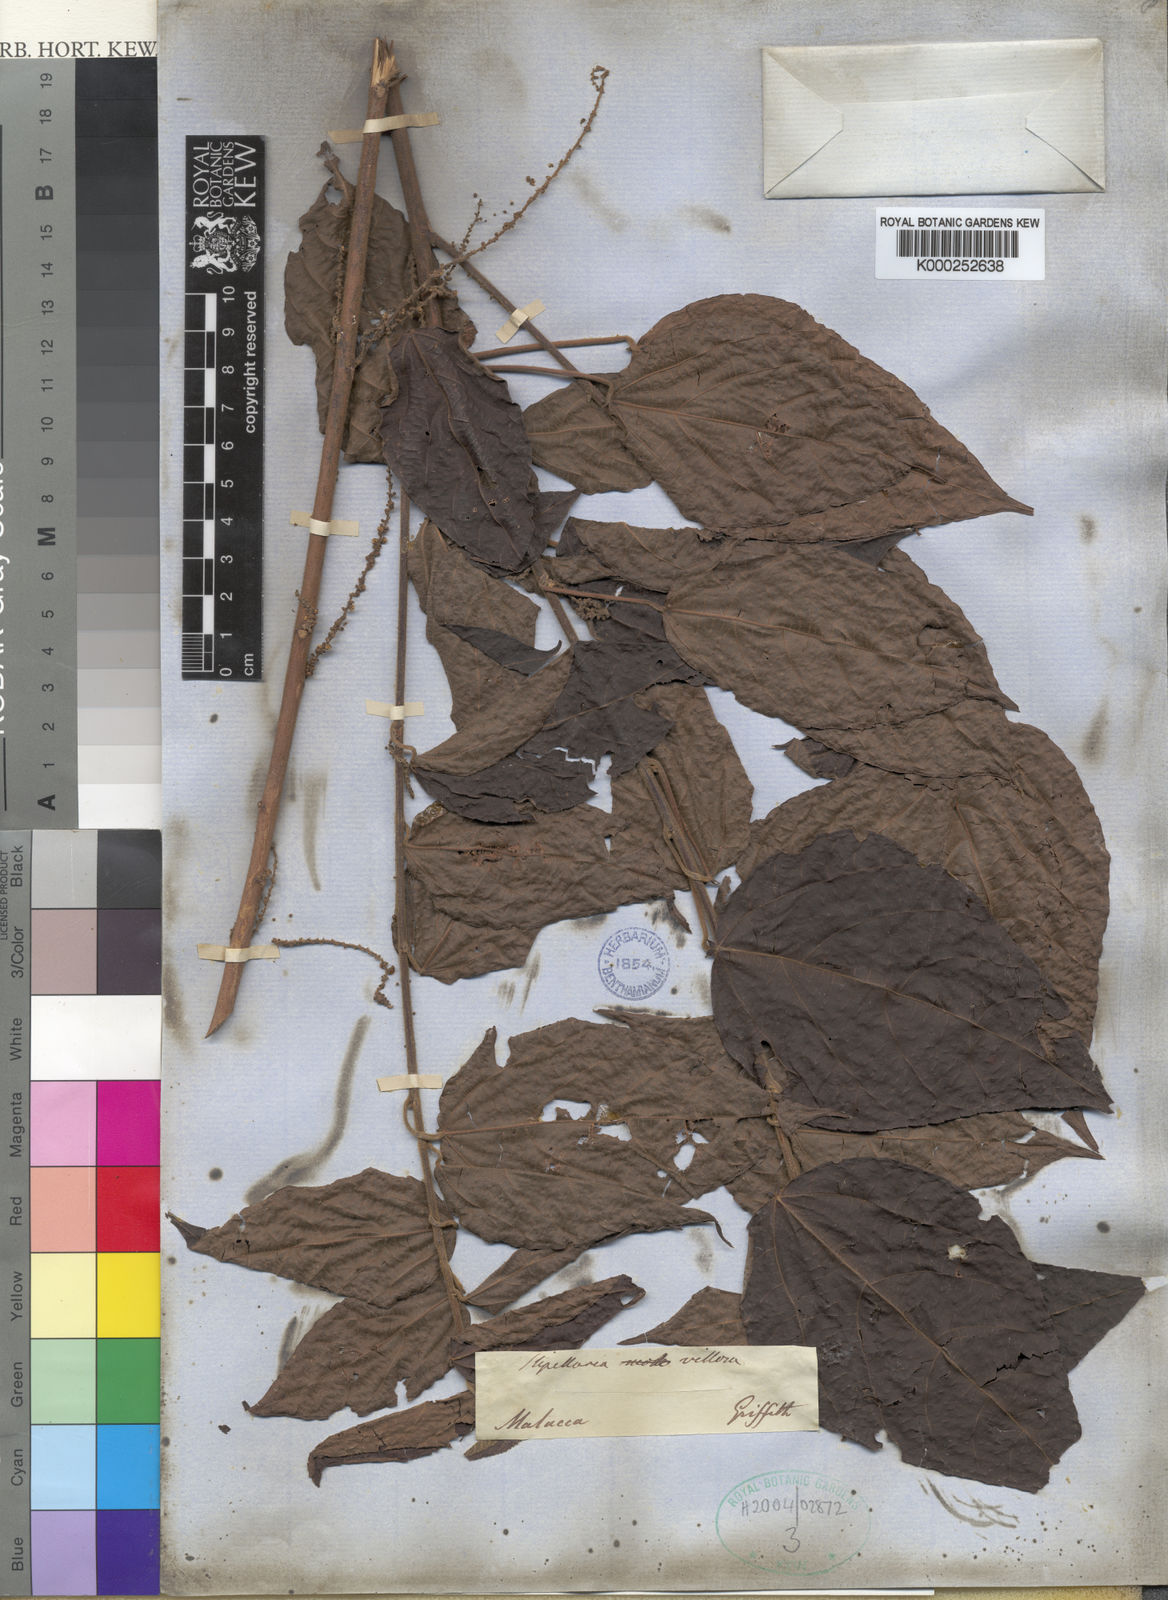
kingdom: Plantae
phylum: Tracheophyta
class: Magnoliopsida
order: Malpighiales
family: Euphorbiaceae
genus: Alchornea
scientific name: Alchornea
